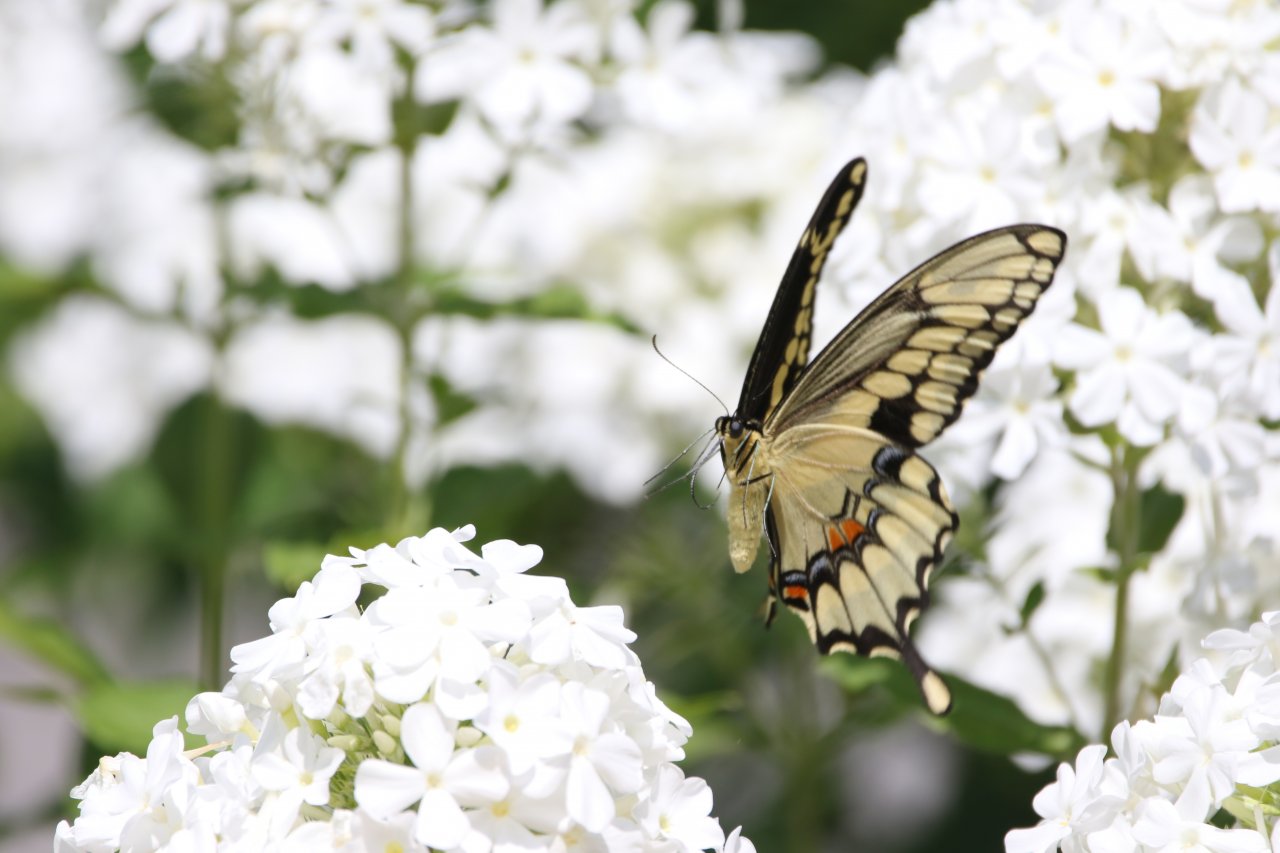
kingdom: Animalia
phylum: Arthropoda
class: Insecta
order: Lepidoptera
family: Papilionidae
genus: Papilio
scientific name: Papilio cresphontes
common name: Eastern Giant Swallowtail
